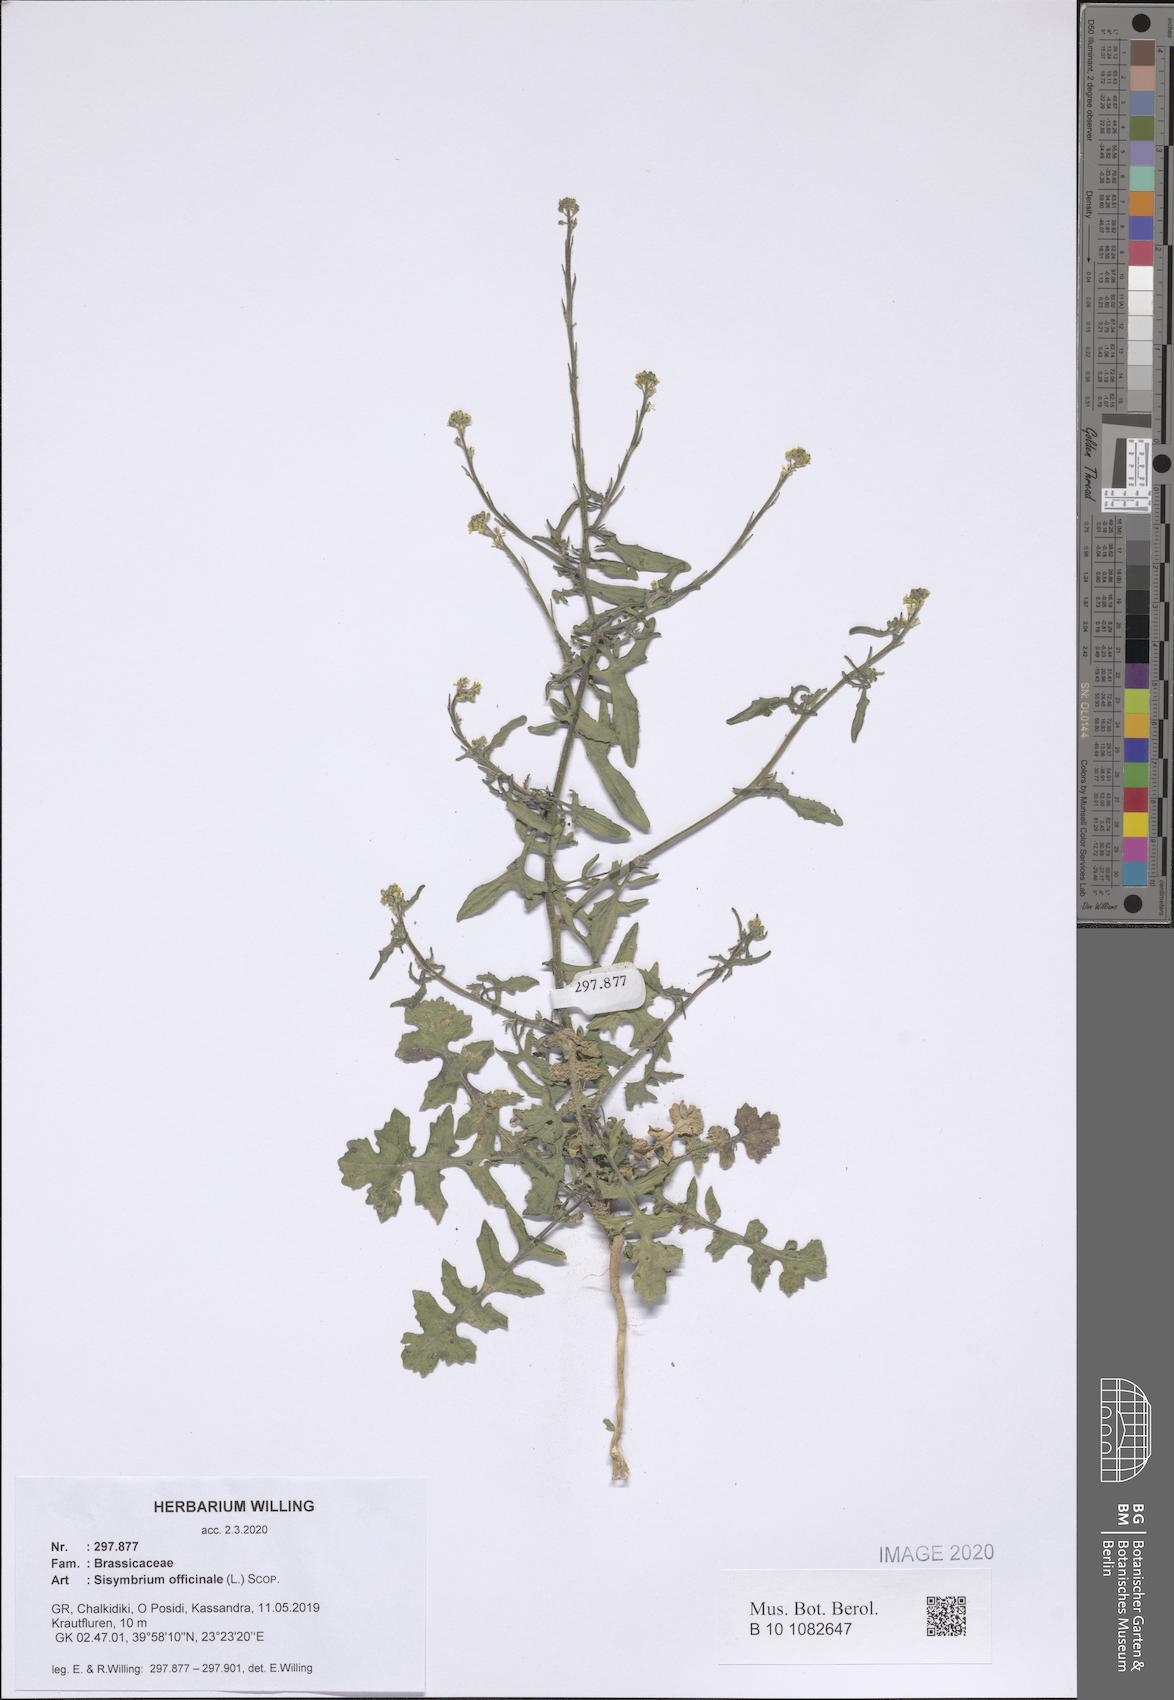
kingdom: Plantae
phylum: Tracheophyta
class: Magnoliopsida
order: Brassicales
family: Brassicaceae
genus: Sisymbrium
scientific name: Sisymbrium officinale
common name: Hedge mustard
